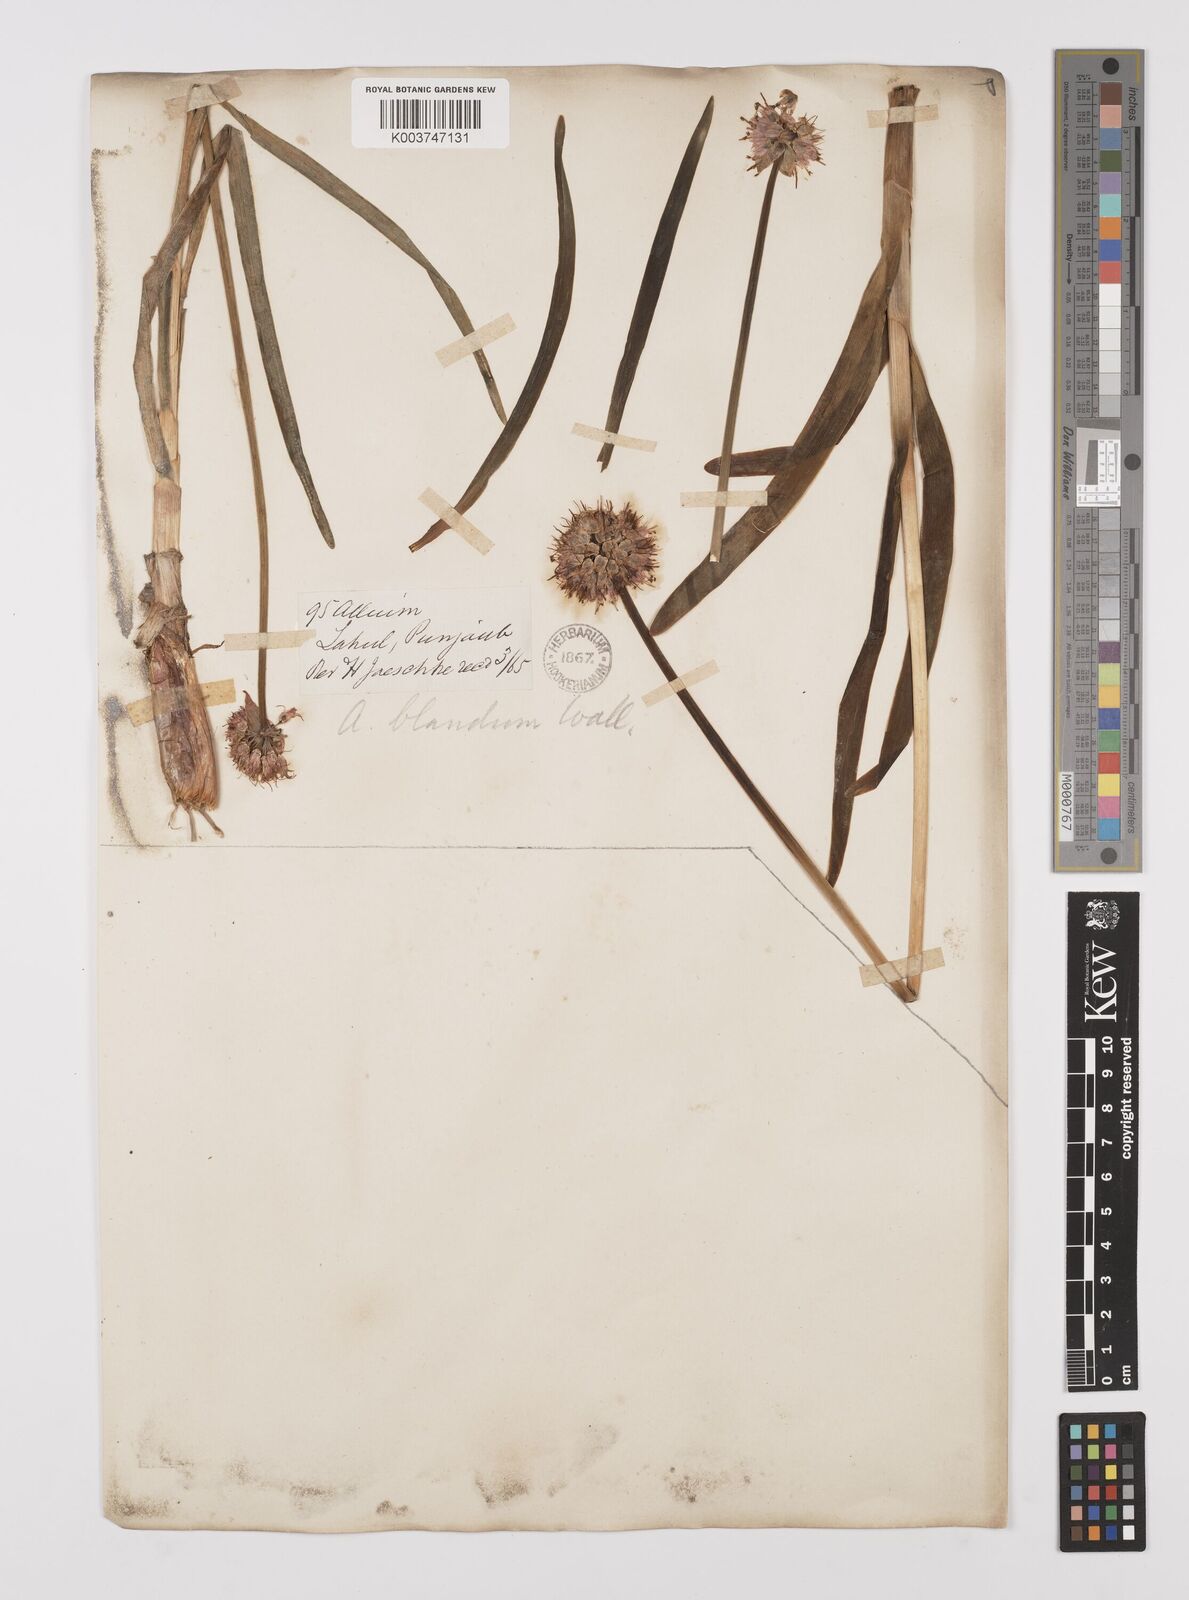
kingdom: Plantae
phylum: Tracheophyta
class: Liliopsida
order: Asparagales
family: Amaryllidaceae
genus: Allium
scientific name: Allium carolinianum
